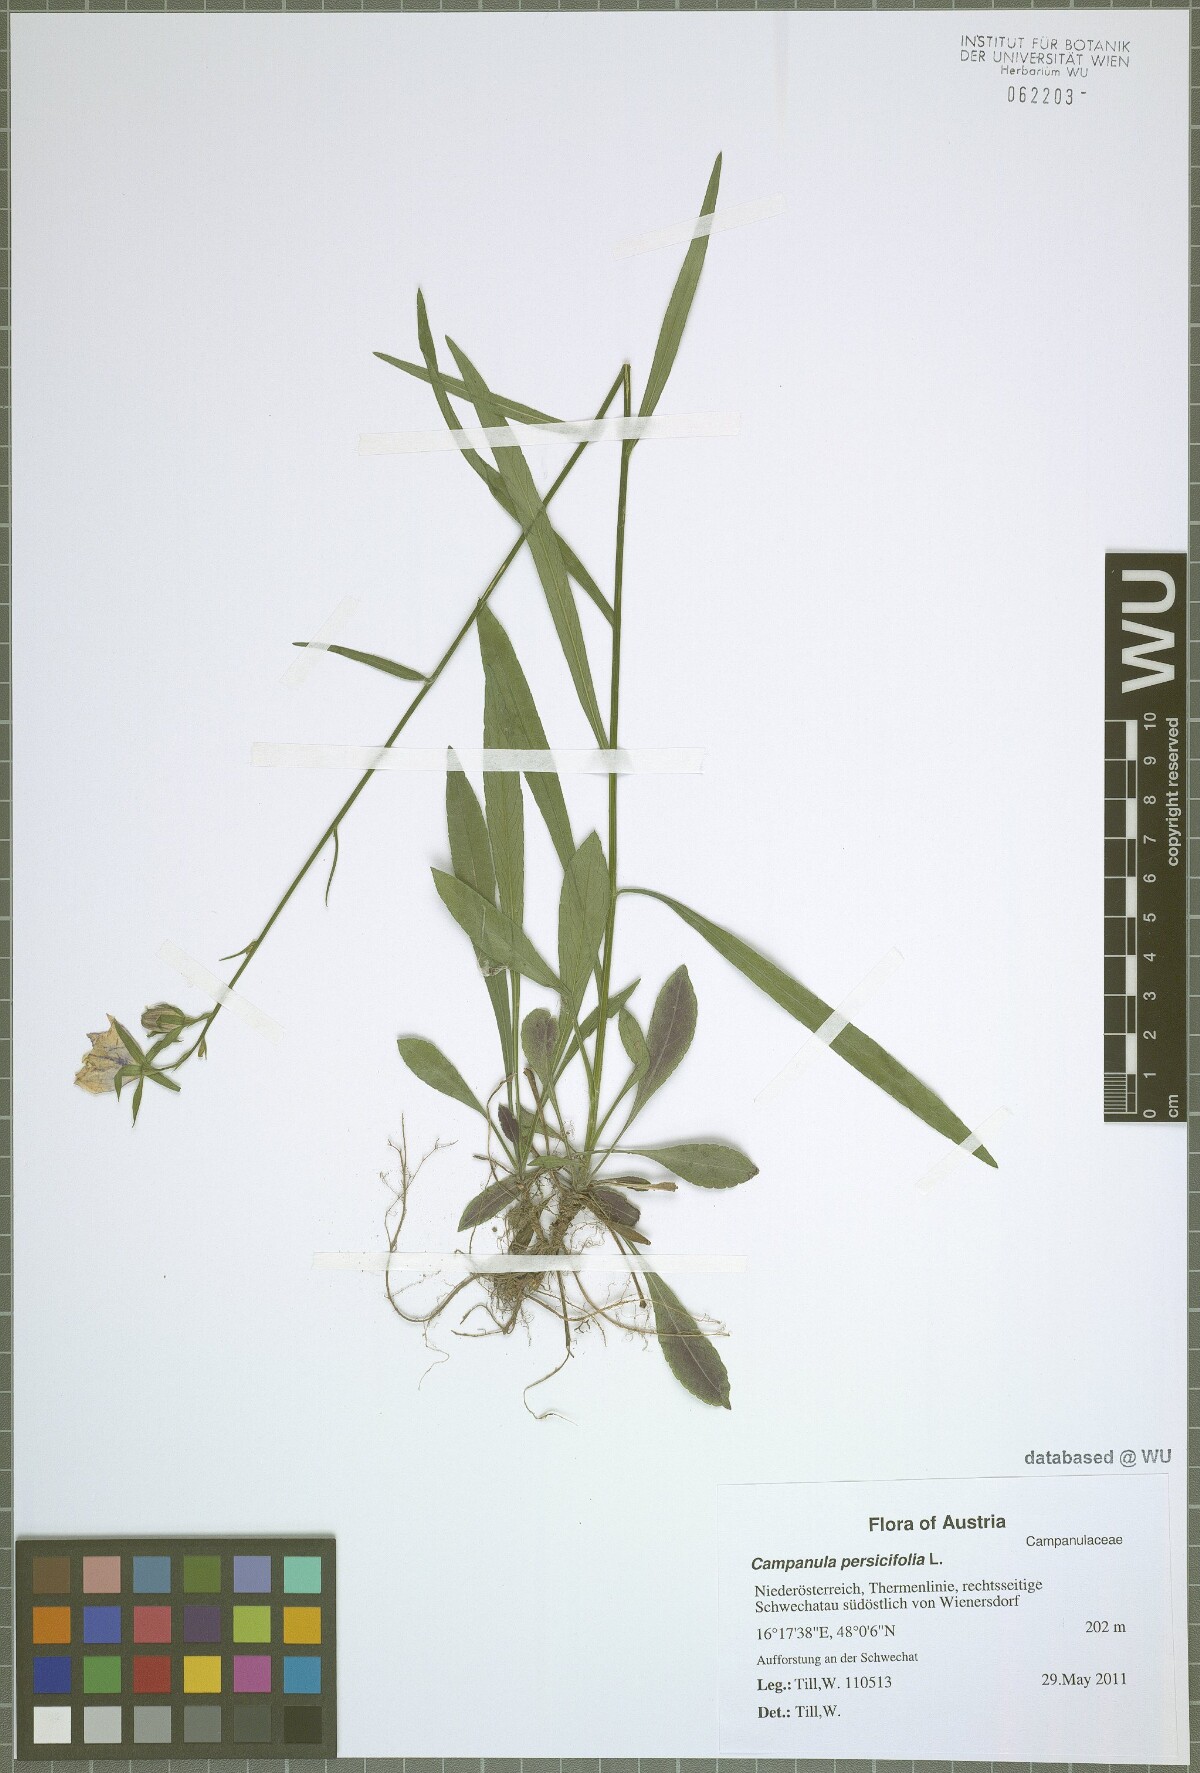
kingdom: Plantae
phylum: Tracheophyta
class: Magnoliopsida
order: Asterales
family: Campanulaceae
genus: Campanula
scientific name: Campanula persicifolia
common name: Peach-leaved bellflower
